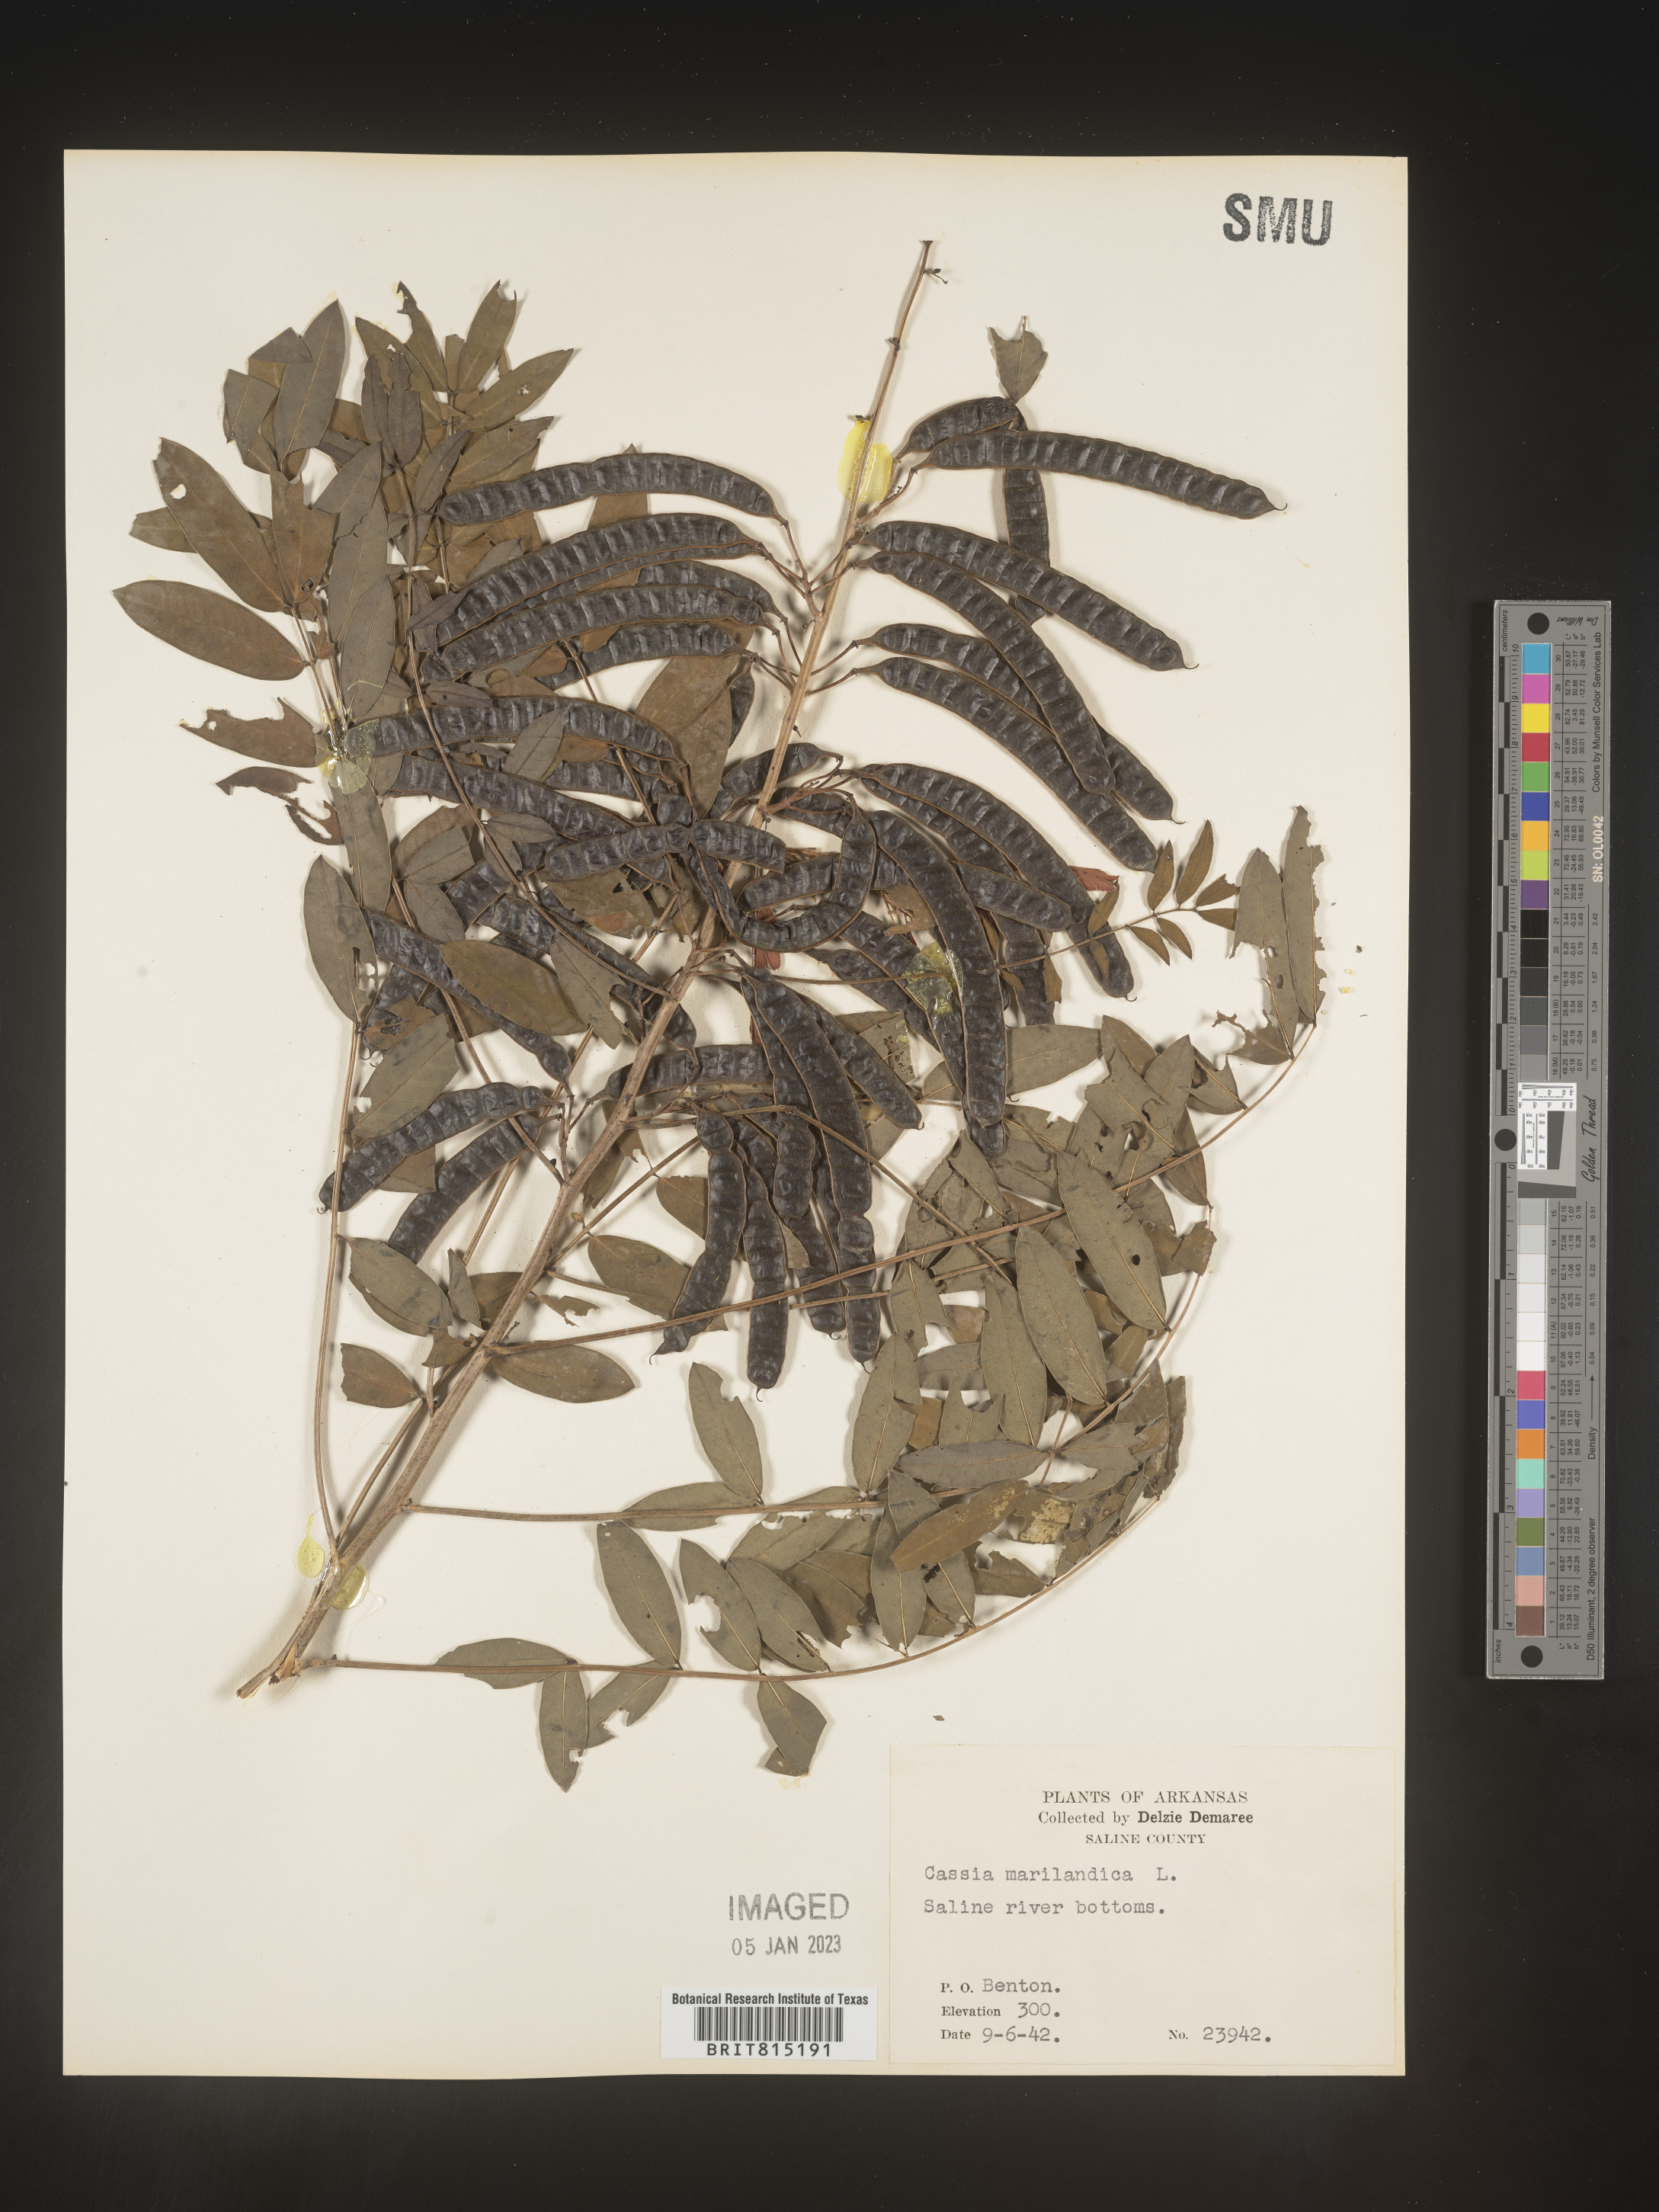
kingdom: Plantae
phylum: Tracheophyta
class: Magnoliopsida
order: Fabales
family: Fabaceae
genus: Senna
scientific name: Senna marilandica
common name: American senna
